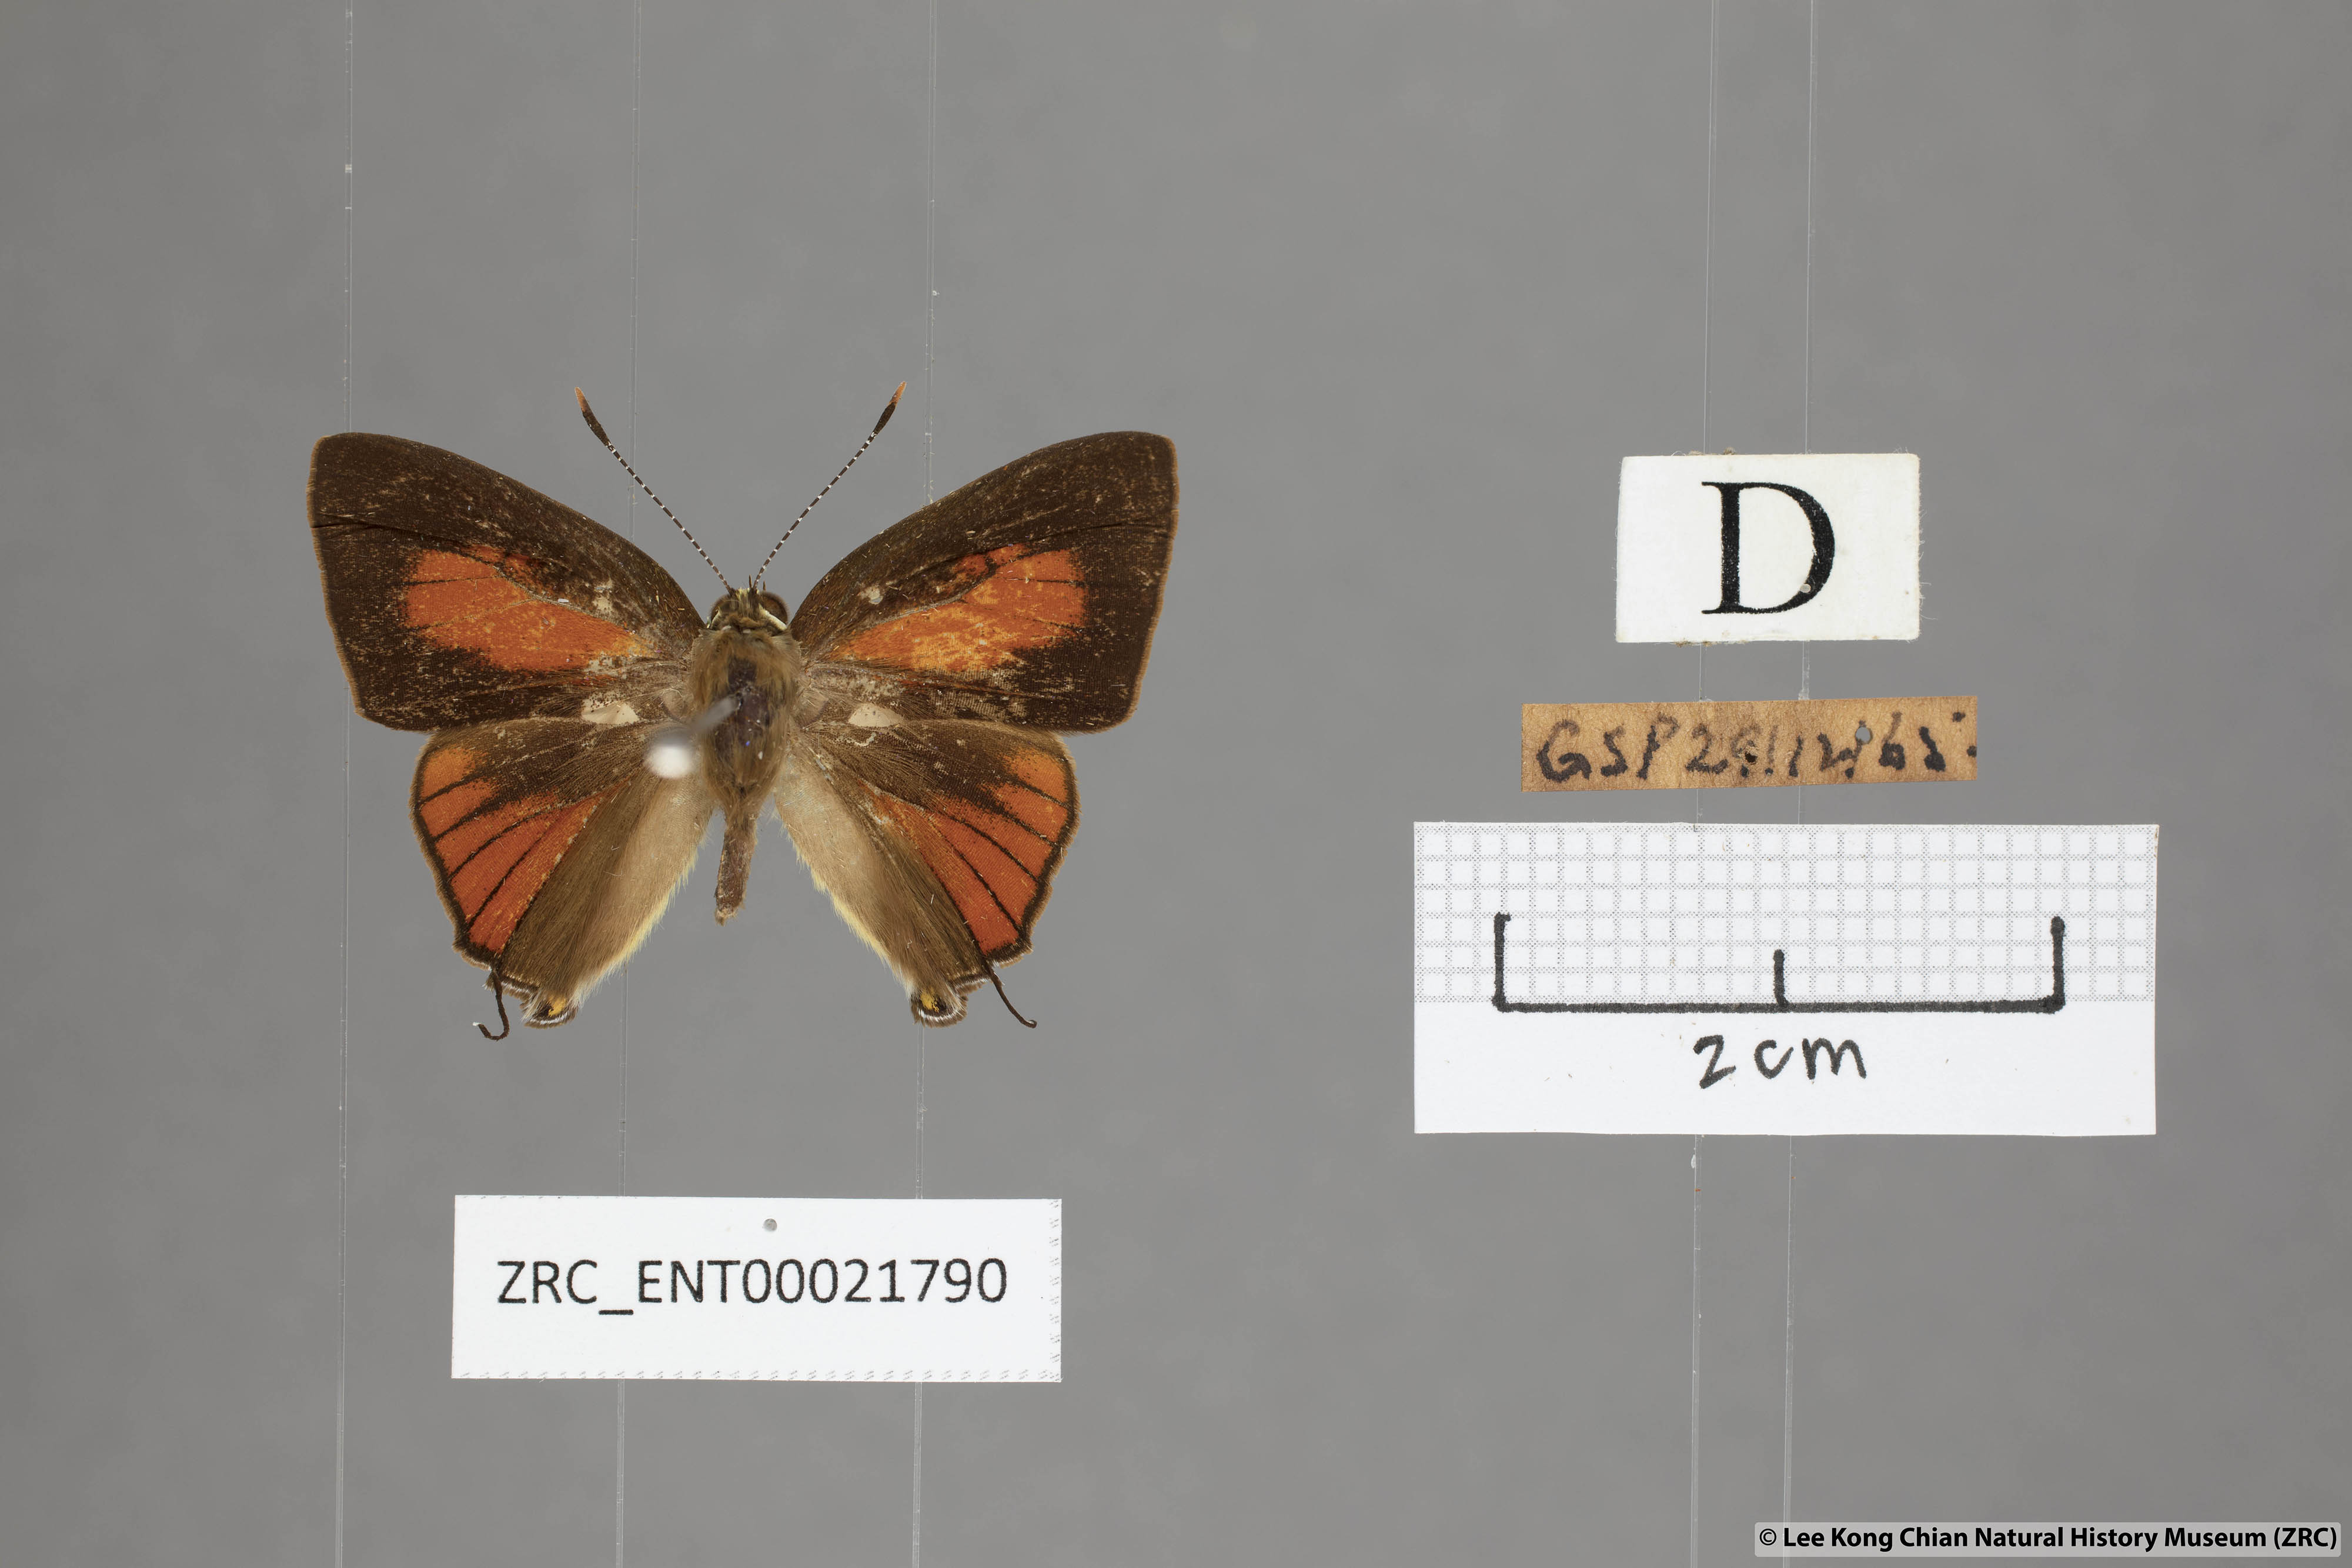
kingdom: Animalia
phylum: Arthropoda
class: Insecta
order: Lepidoptera
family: Lycaenidae
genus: Rapala
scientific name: Rapala dieneces
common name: Scarlet flash
